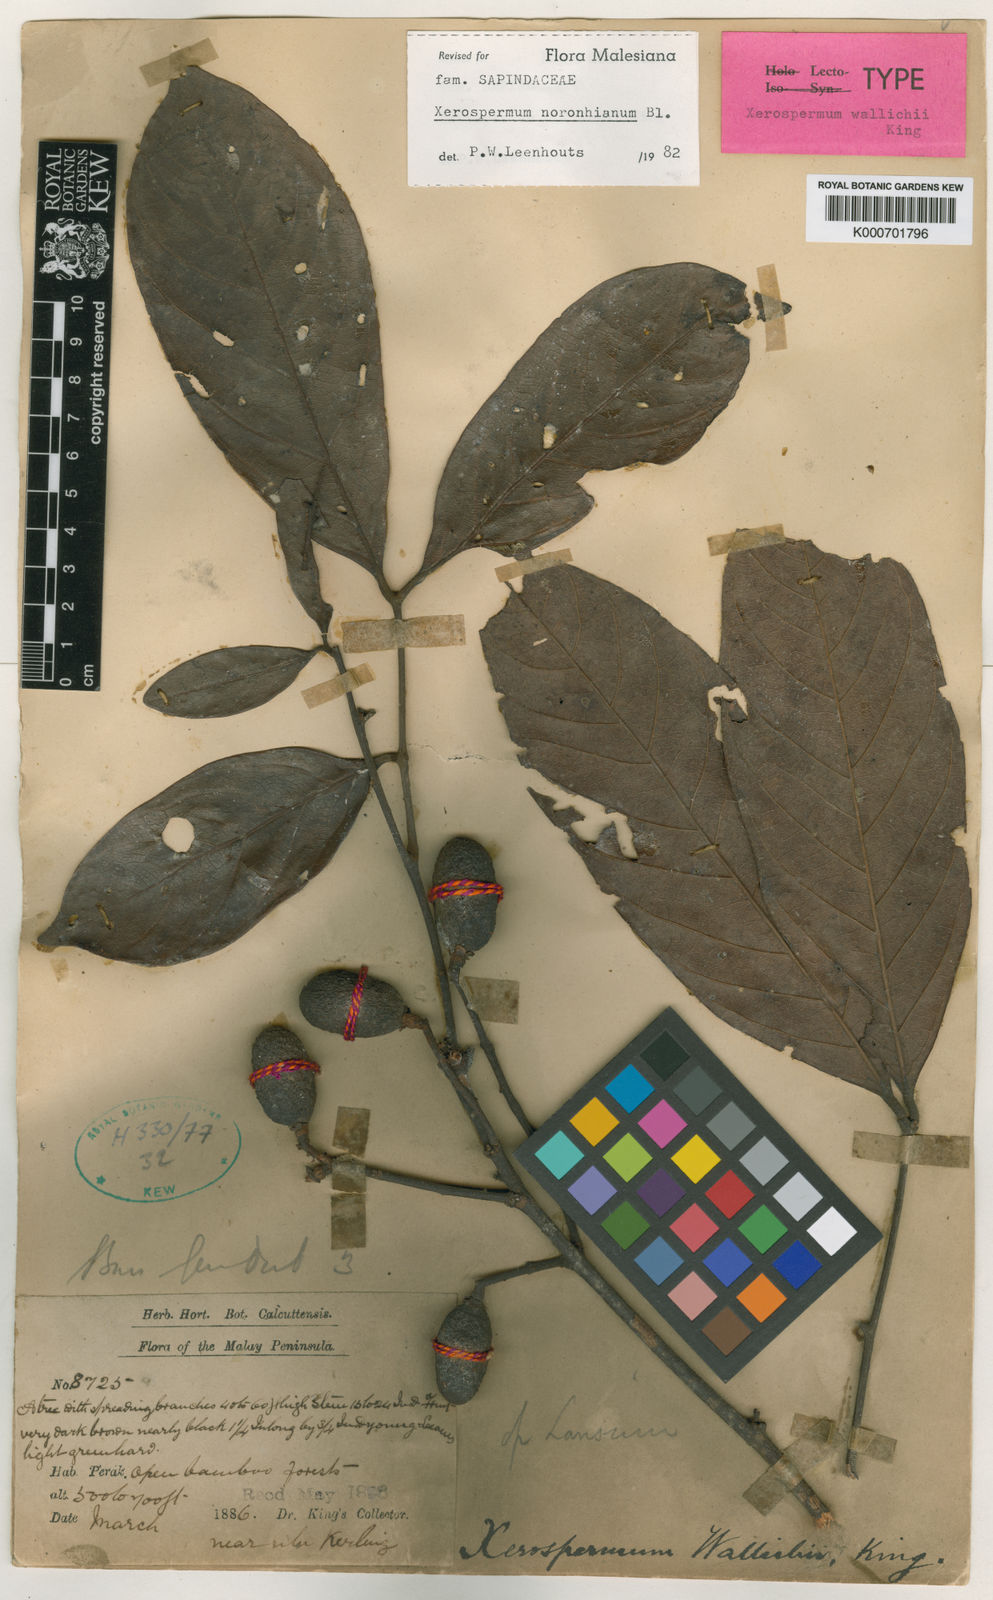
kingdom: Plantae
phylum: Tracheophyta
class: Magnoliopsida
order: Sapindales
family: Sapindaceae
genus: Xerospermum
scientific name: Xerospermum noronhianum
